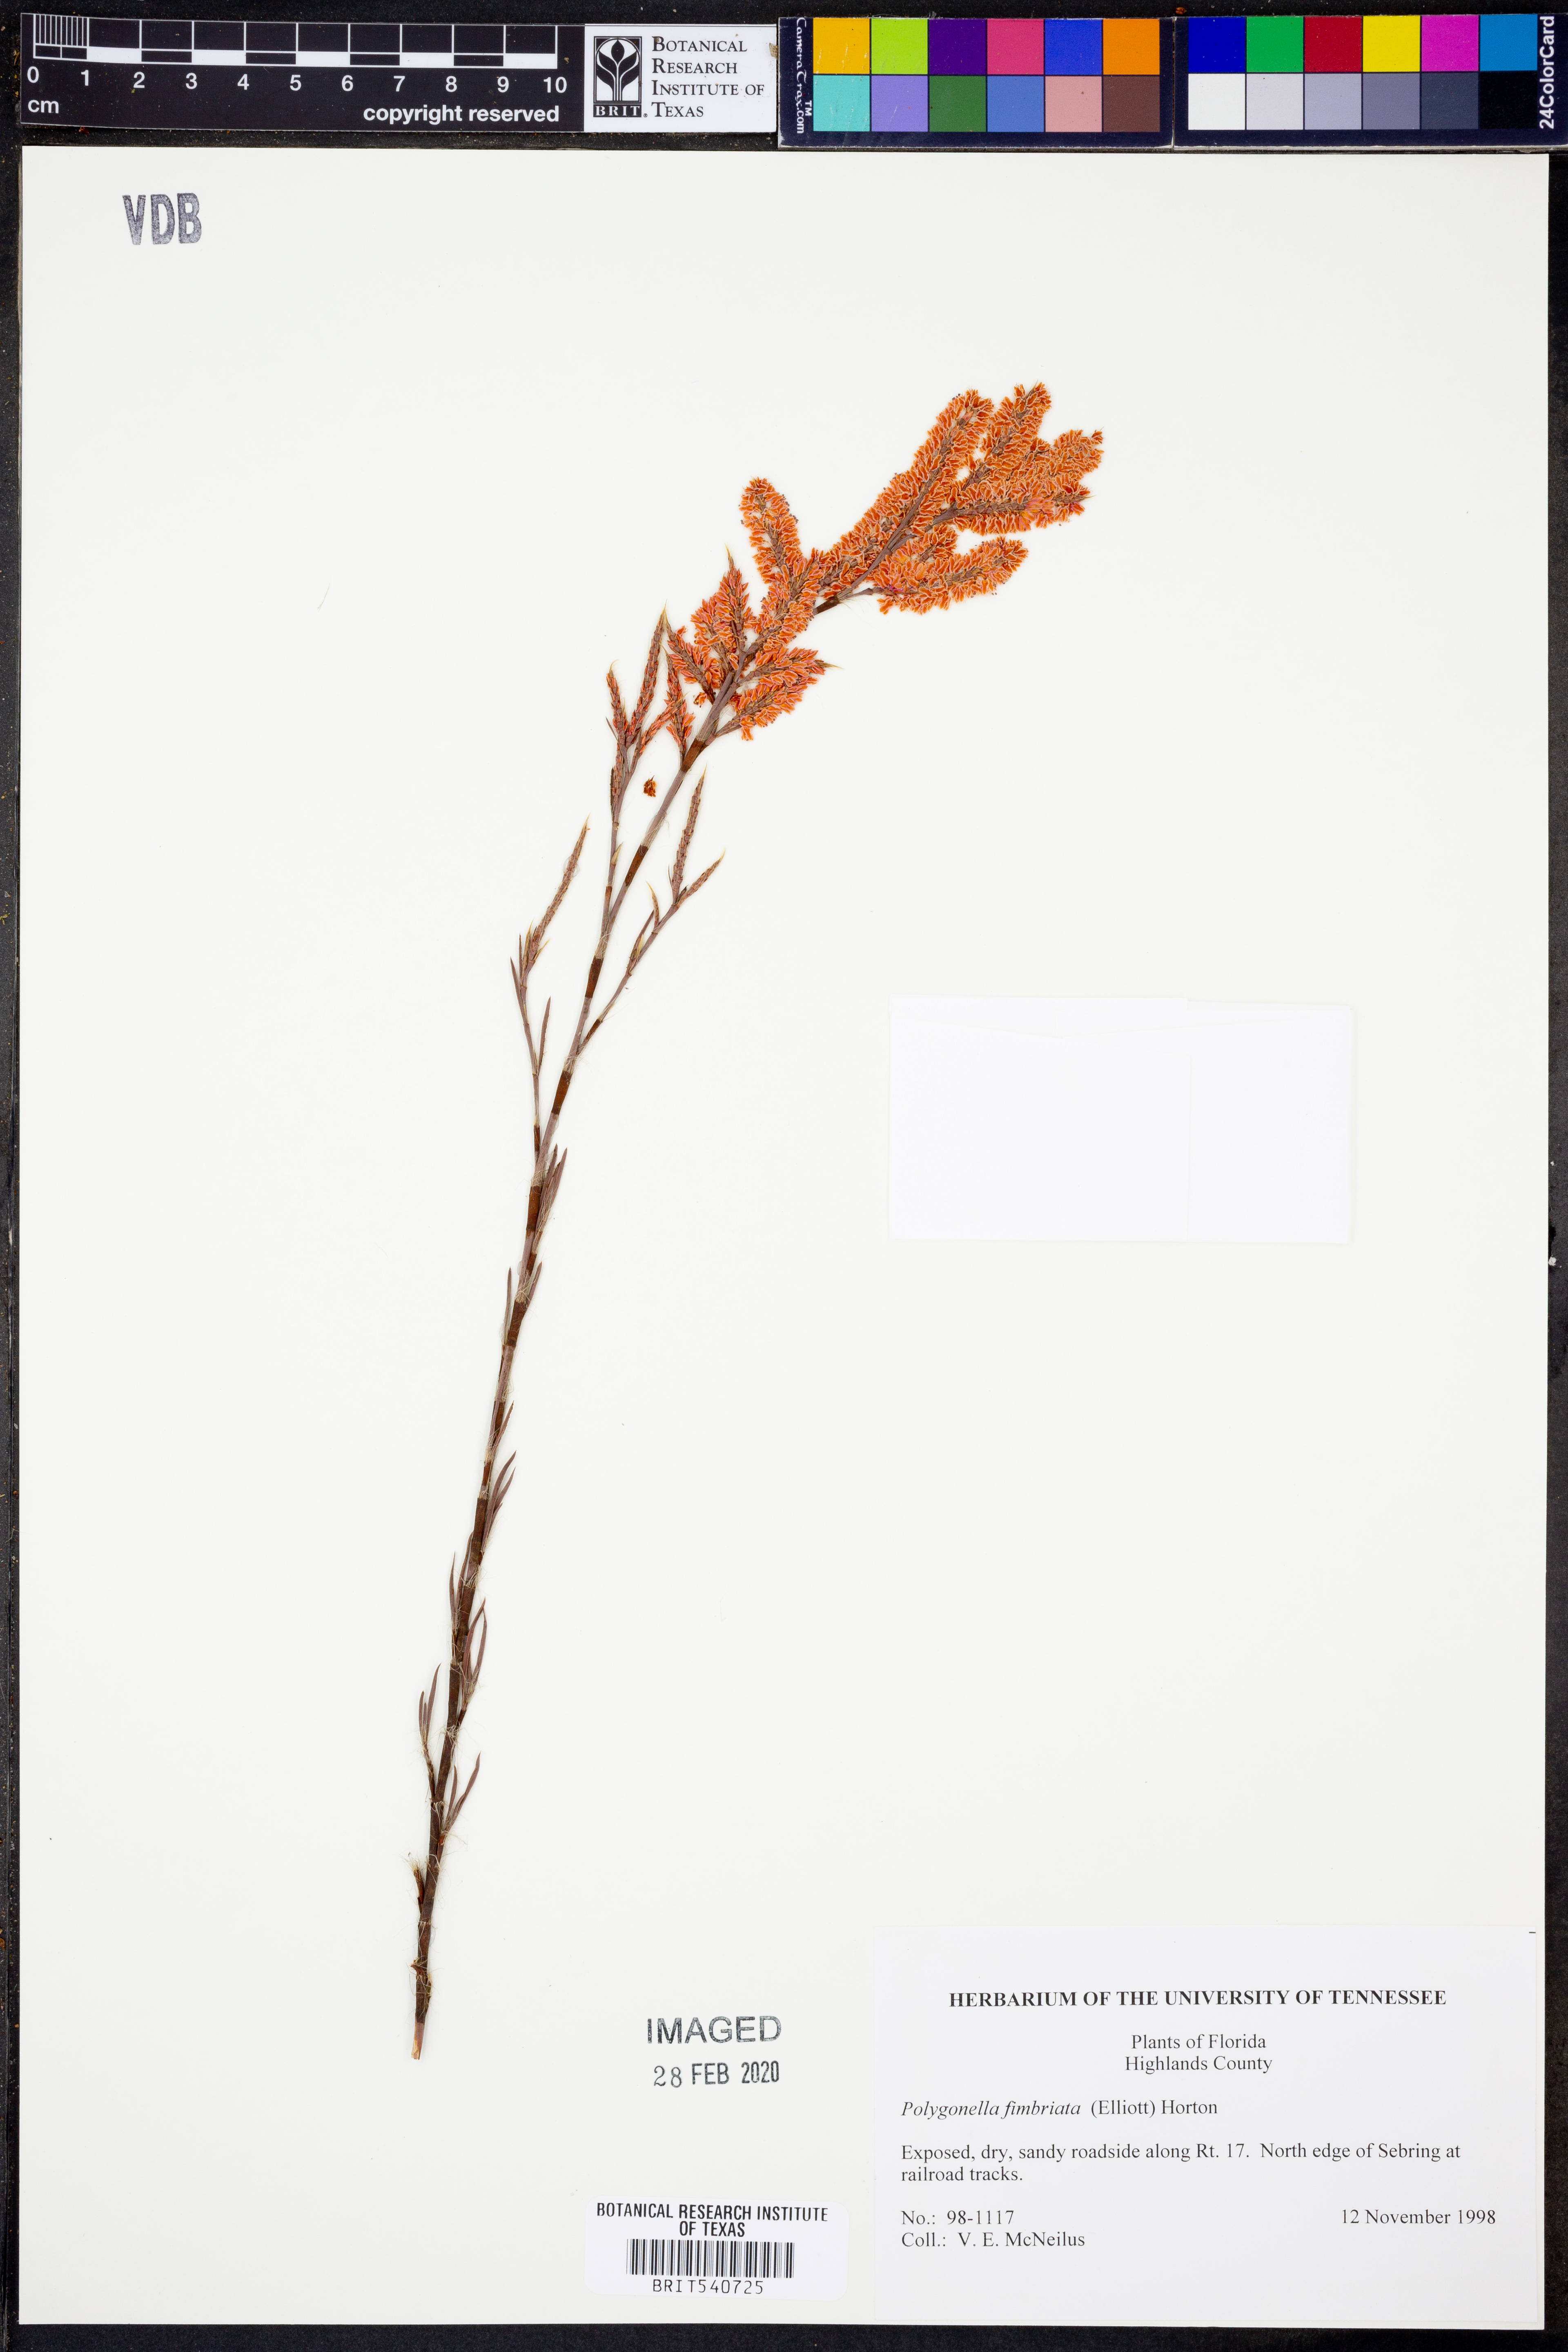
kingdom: Plantae
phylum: Tracheophyta
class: Magnoliopsida
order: Caryophyllales
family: Polygonaceae
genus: Polygonella
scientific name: Polygonella fimbriata
